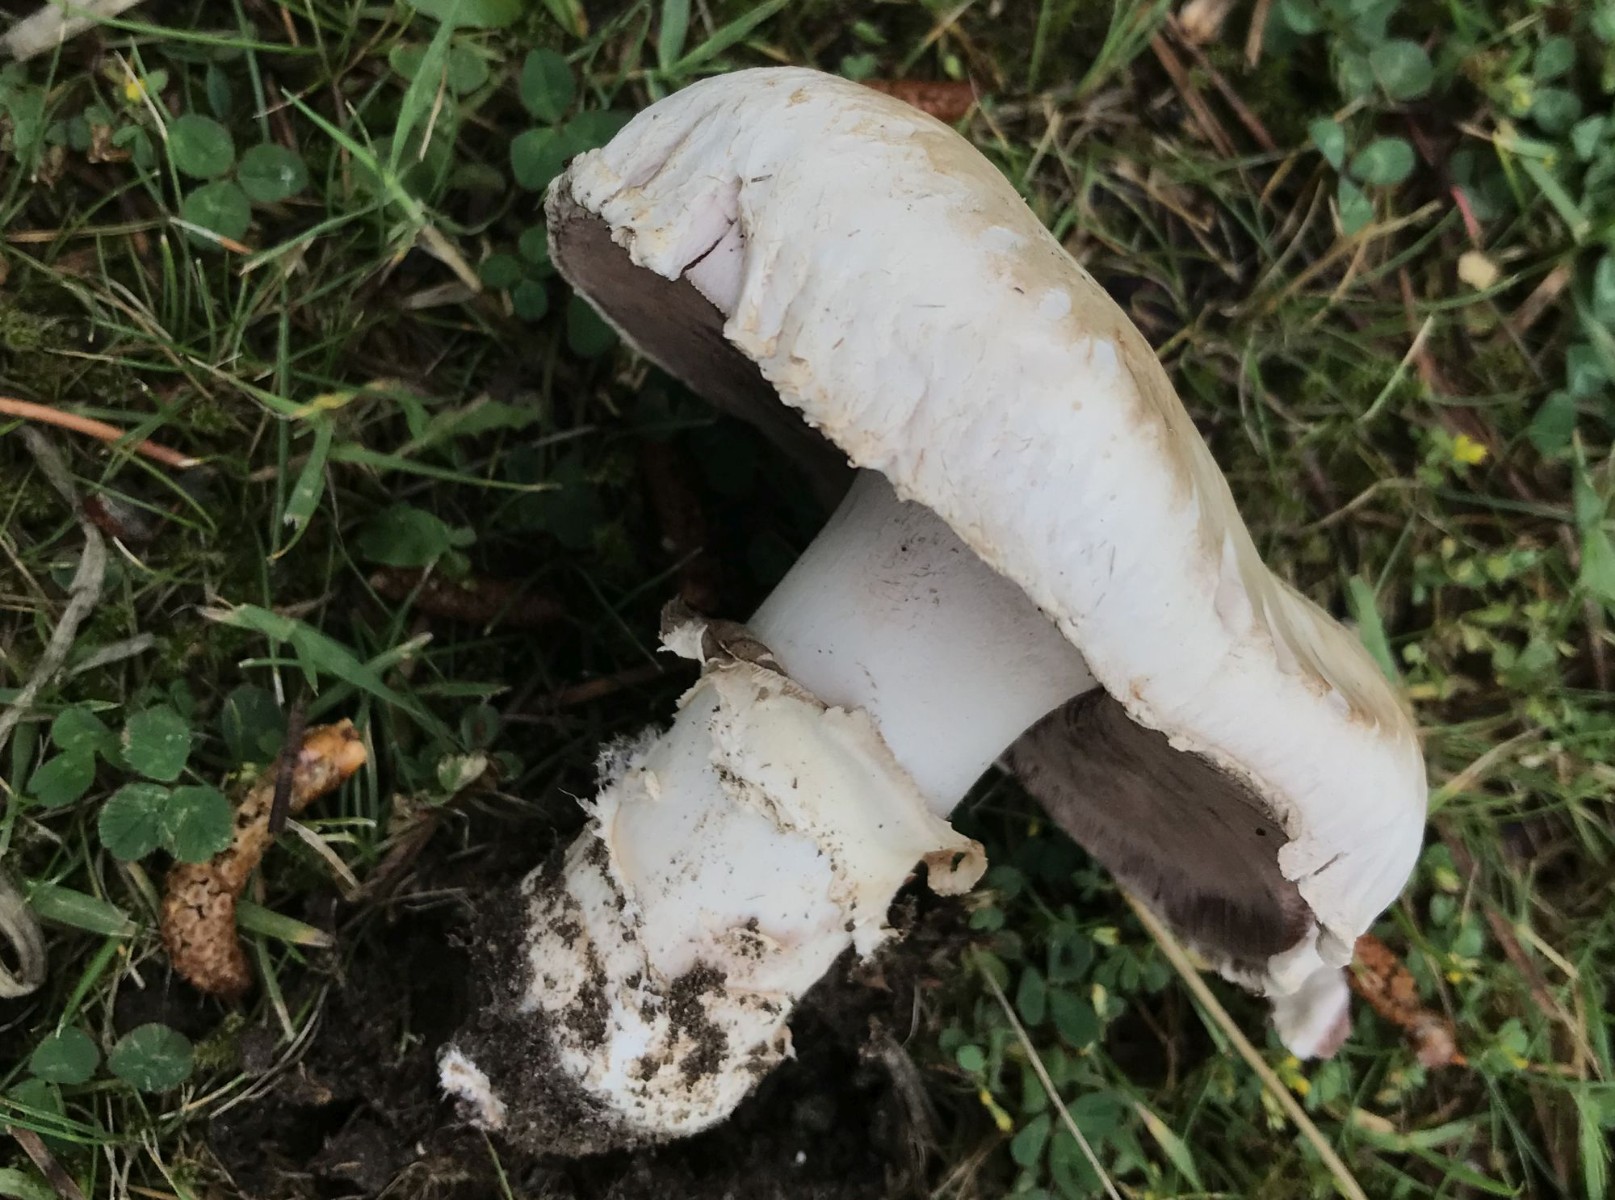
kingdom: Fungi
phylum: Basidiomycota
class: Agaricomycetes
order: Agaricales
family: Agaricaceae
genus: Agaricus
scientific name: Agaricus bitorquis
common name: vej-champignon
